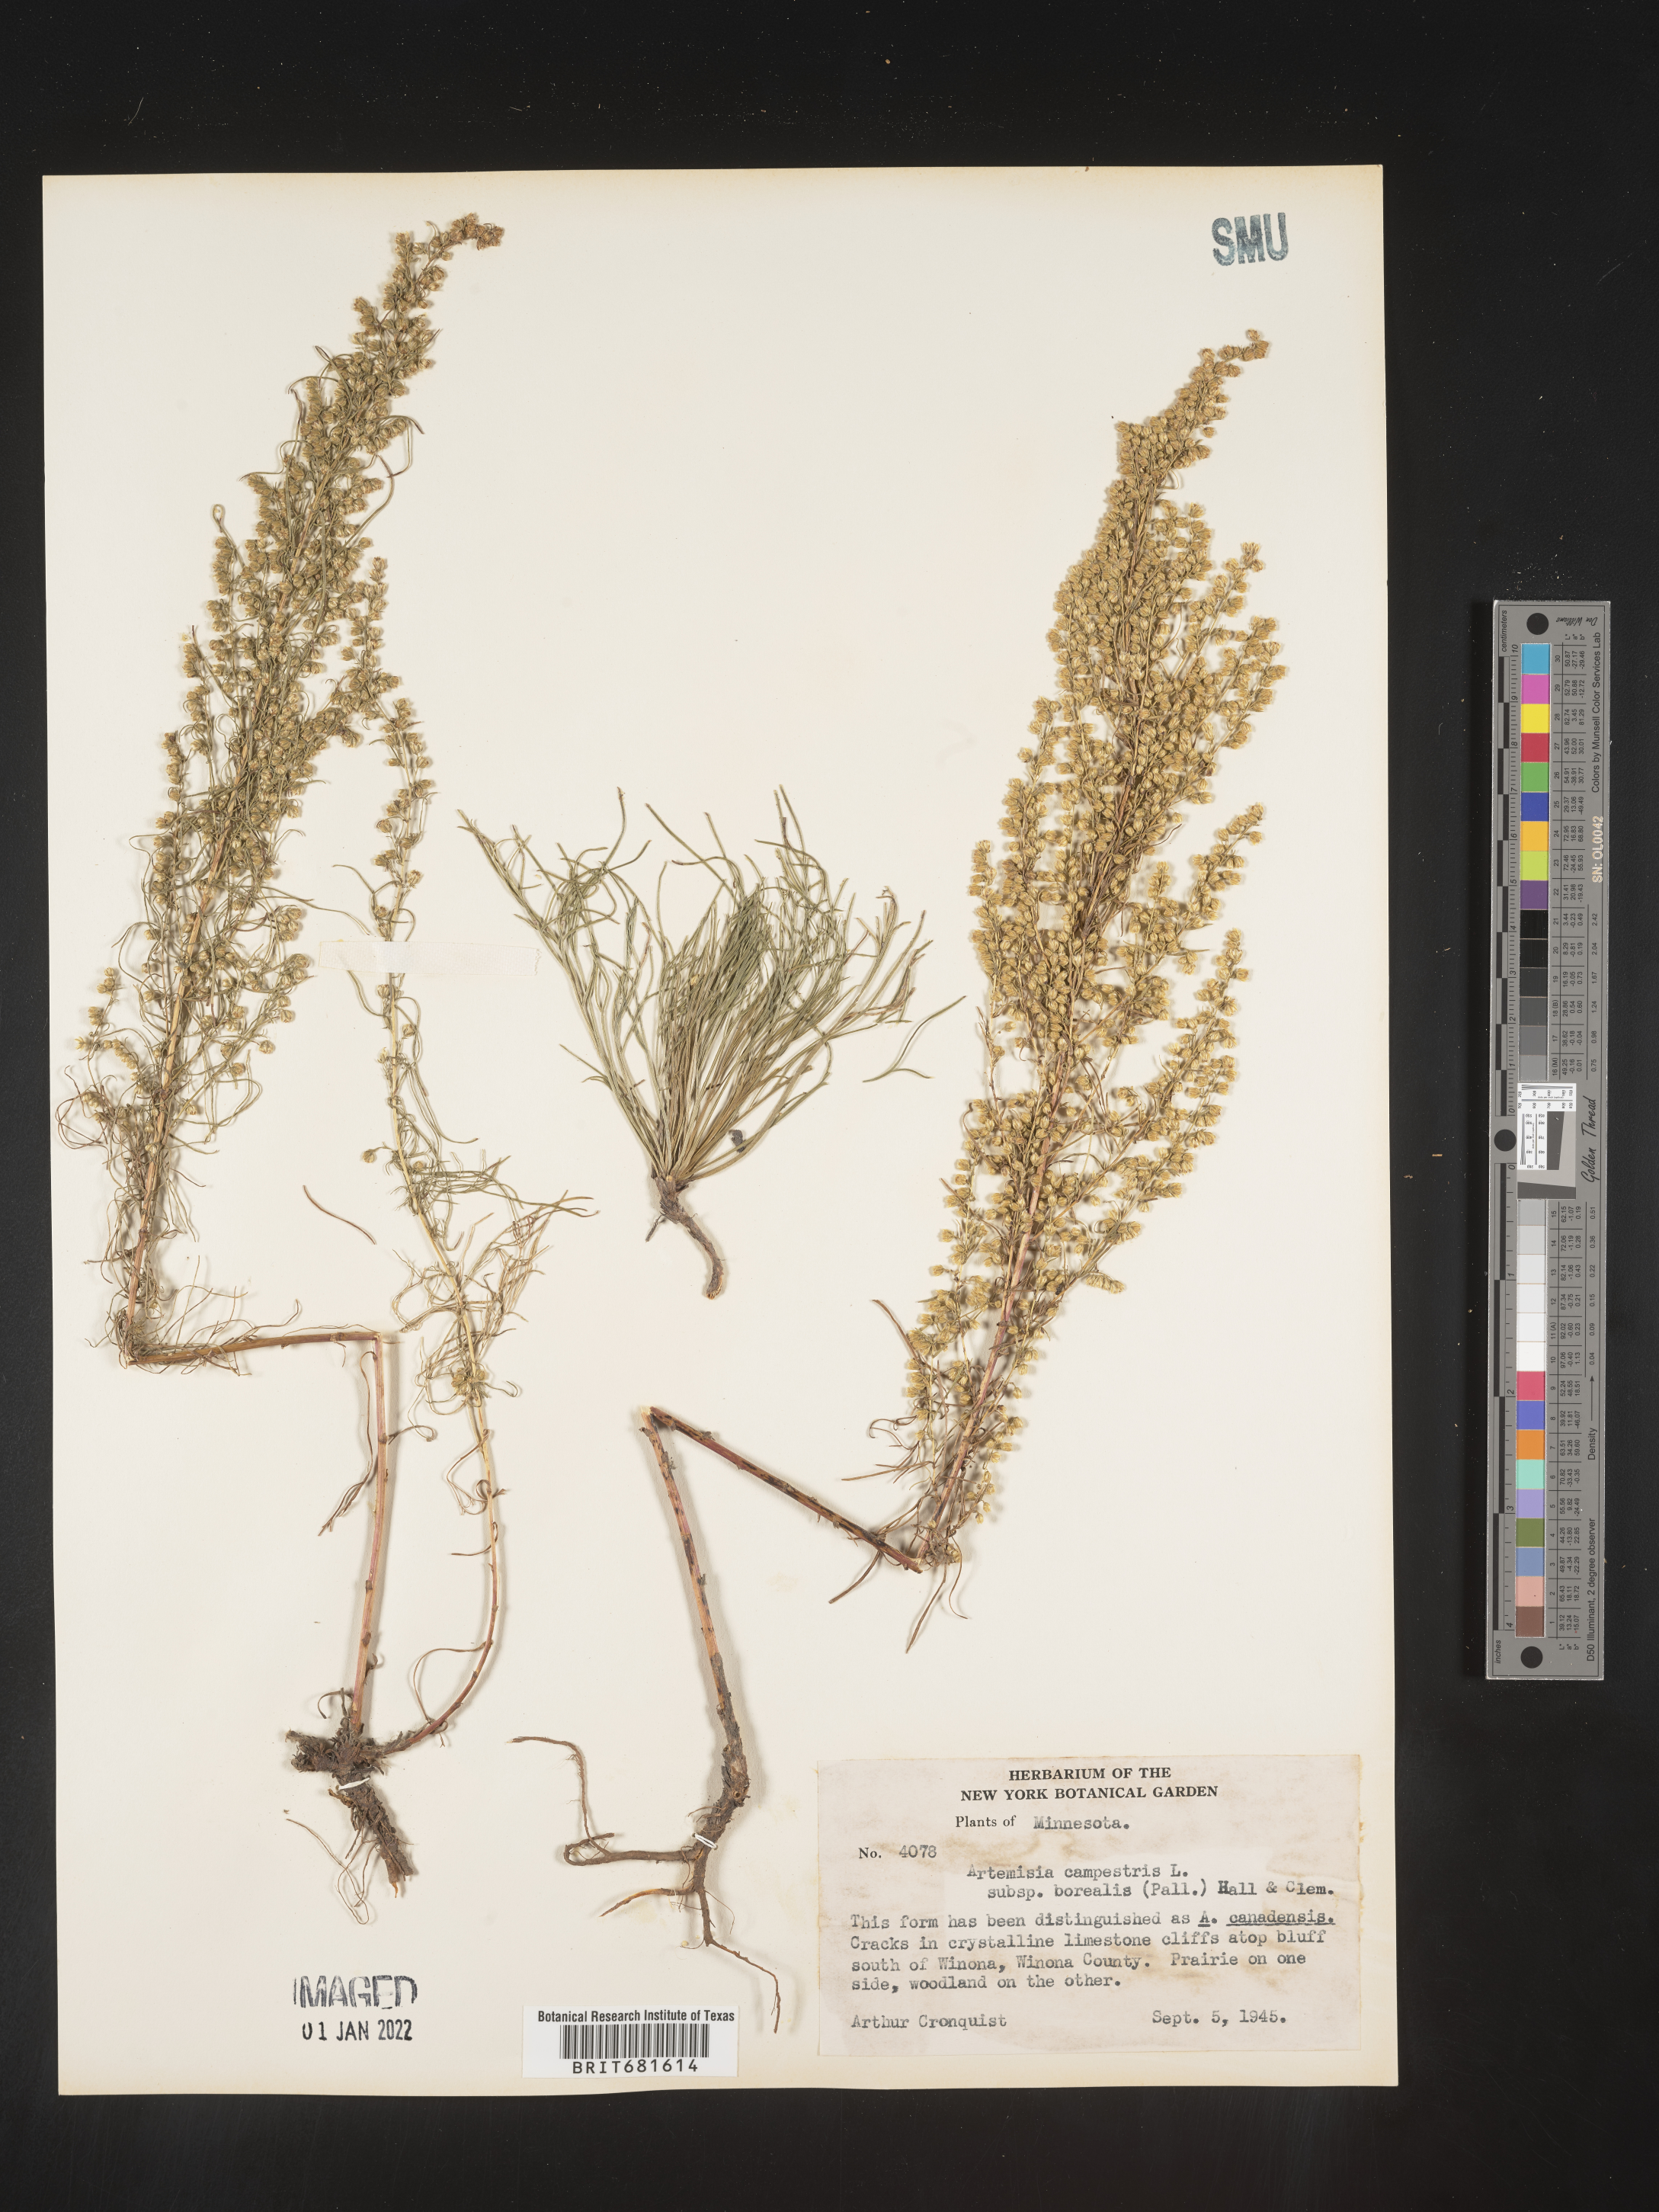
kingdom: Plantae
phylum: Tracheophyta
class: Magnoliopsida
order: Asterales
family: Asteraceae
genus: Artemisia
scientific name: Artemisia campestris
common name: Field wormwood
